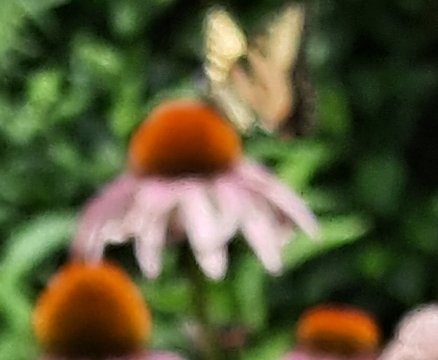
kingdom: Animalia
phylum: Arthropoda
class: Insecta
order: Lepidoptera
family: Papilionidae
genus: Pterourus
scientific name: Pterourus glaucus
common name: Eastern Tiger Swallowtail
